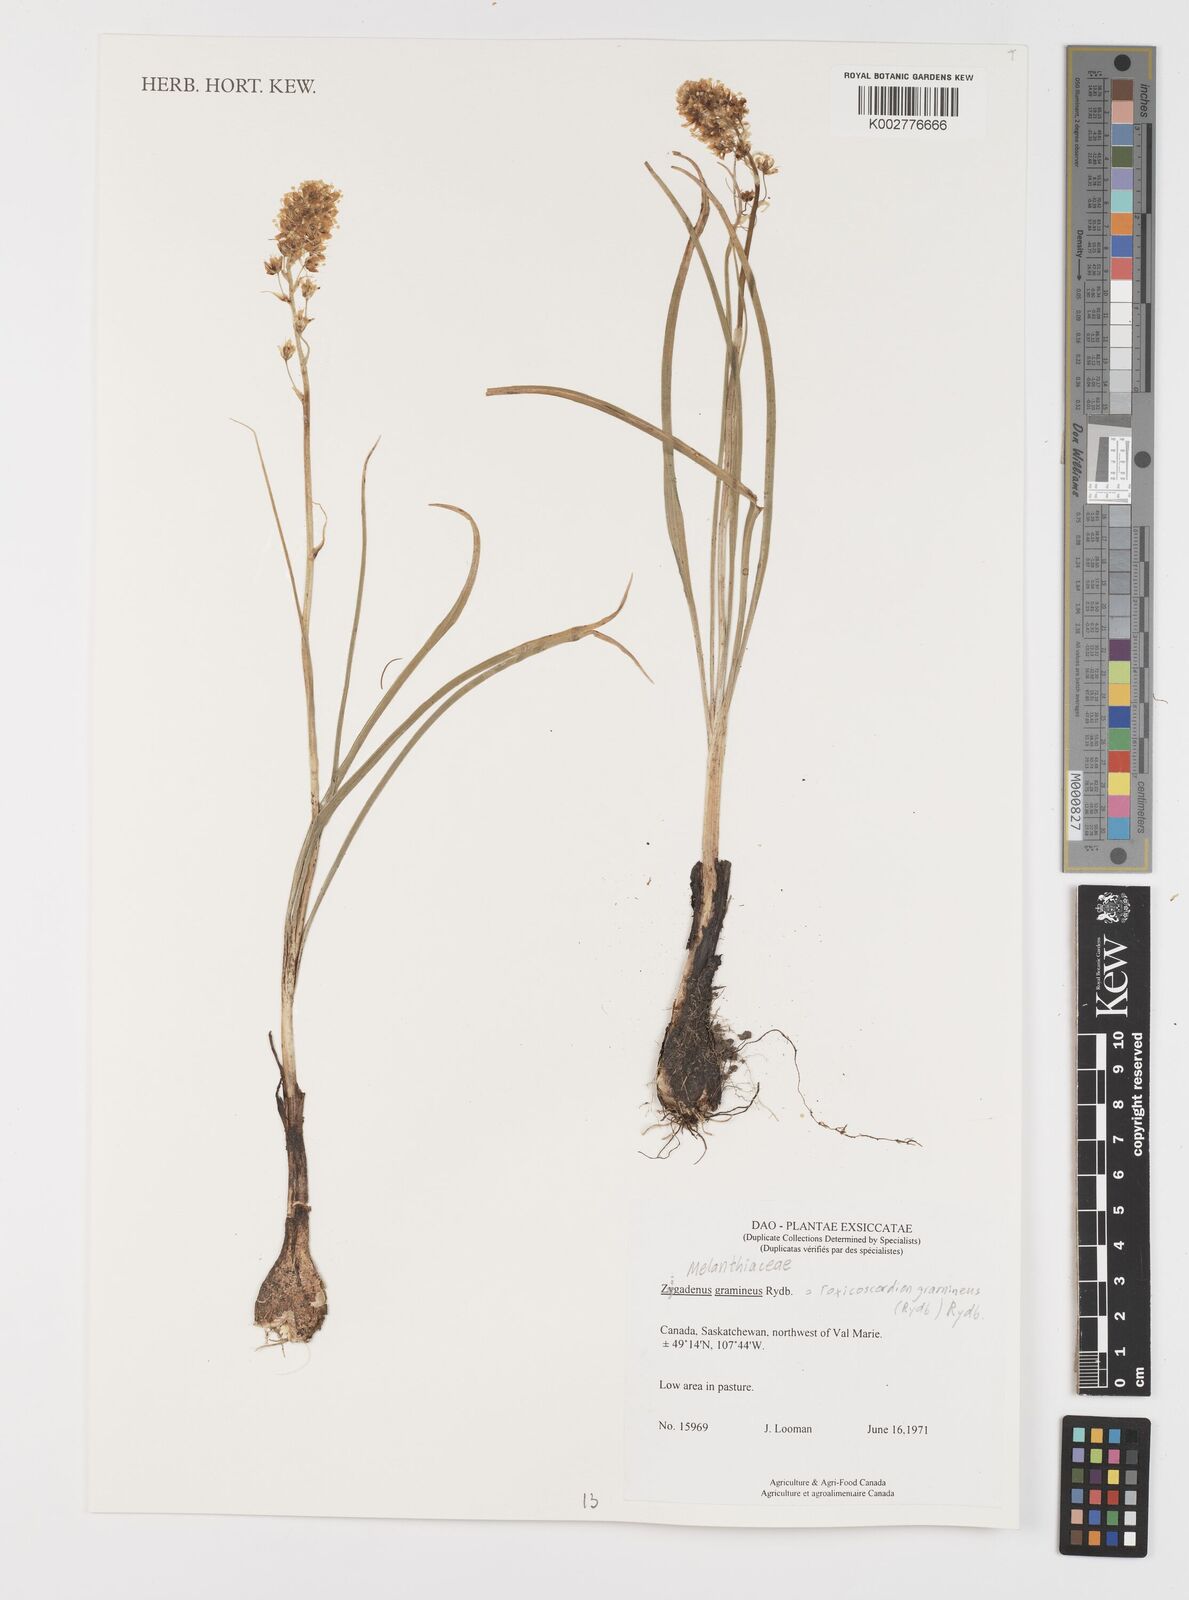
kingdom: Plantae
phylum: Tracheophyta
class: Liliopsida
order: Liliales
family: Melanthiaceae
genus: Toxicoscordion
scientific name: Toxicoscordion venenosum
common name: Meadow death camas
